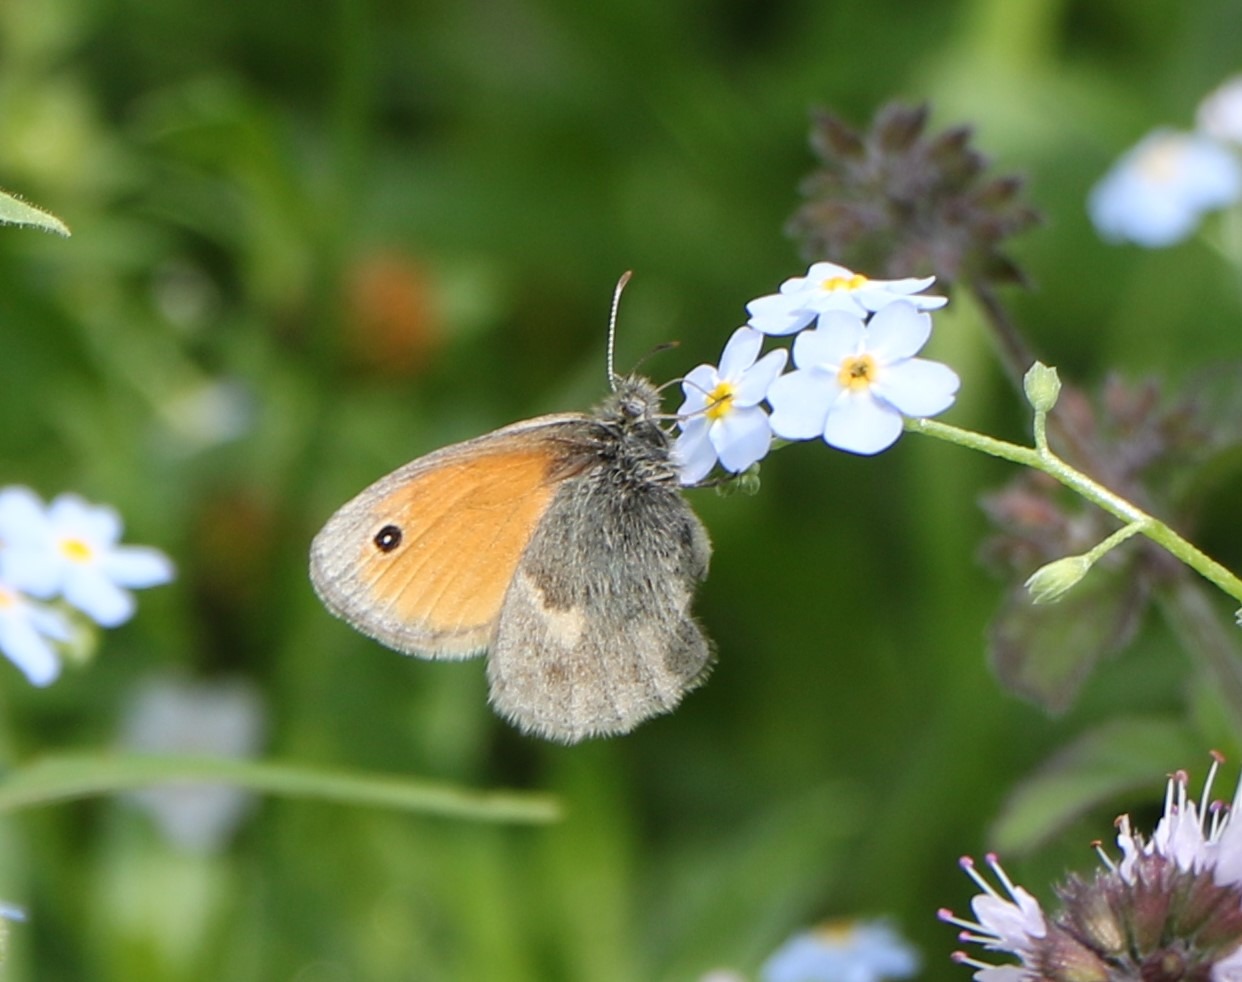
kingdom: Animalia
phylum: Arthropoda
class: Insecta
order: Lepidoptera
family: Nymphalidae
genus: Coenonympha
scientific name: Coenonympha pamphilus
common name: Okkergul randøje
